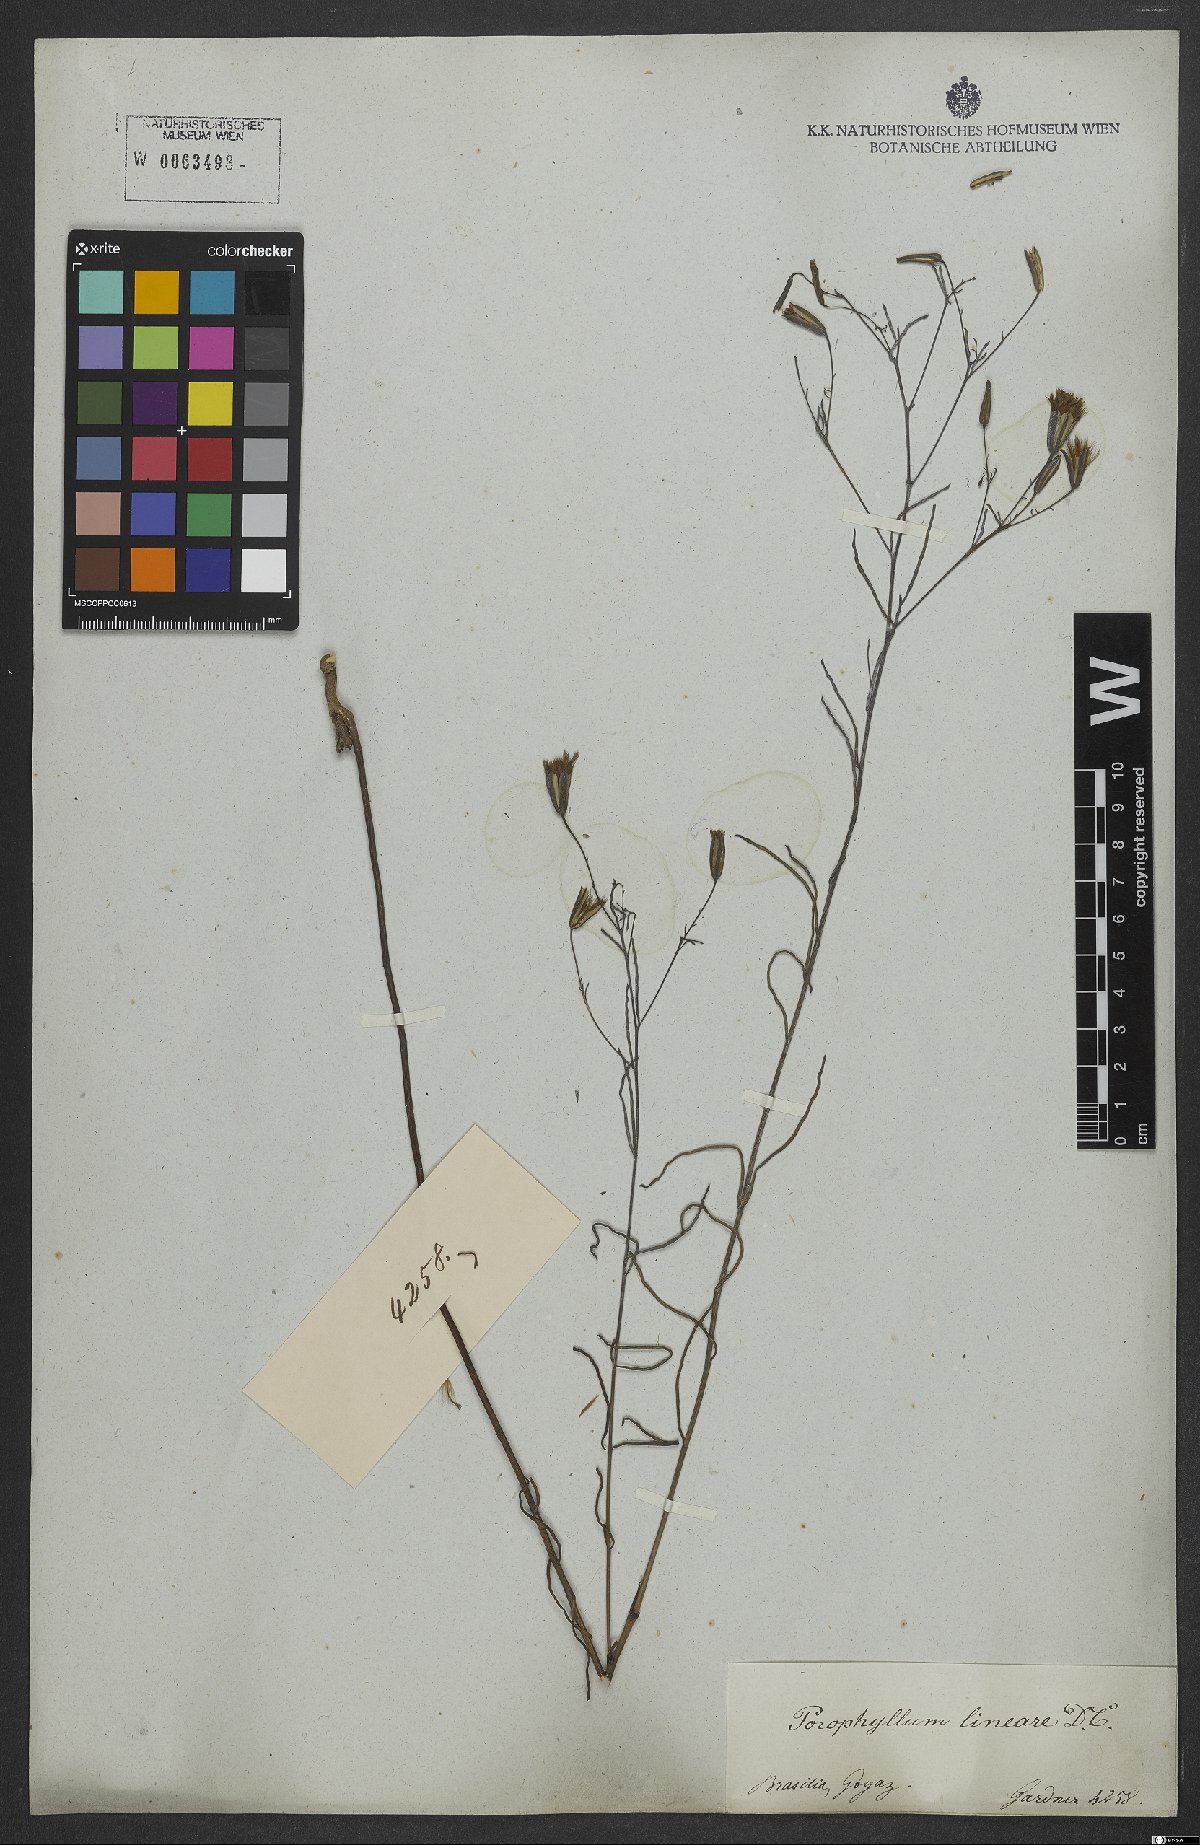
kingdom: Plantae
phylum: Tracheophyta
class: Magnoliopsida
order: Asterales
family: Asteraceae
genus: Porophyllum
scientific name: Porophyllum obscurum
